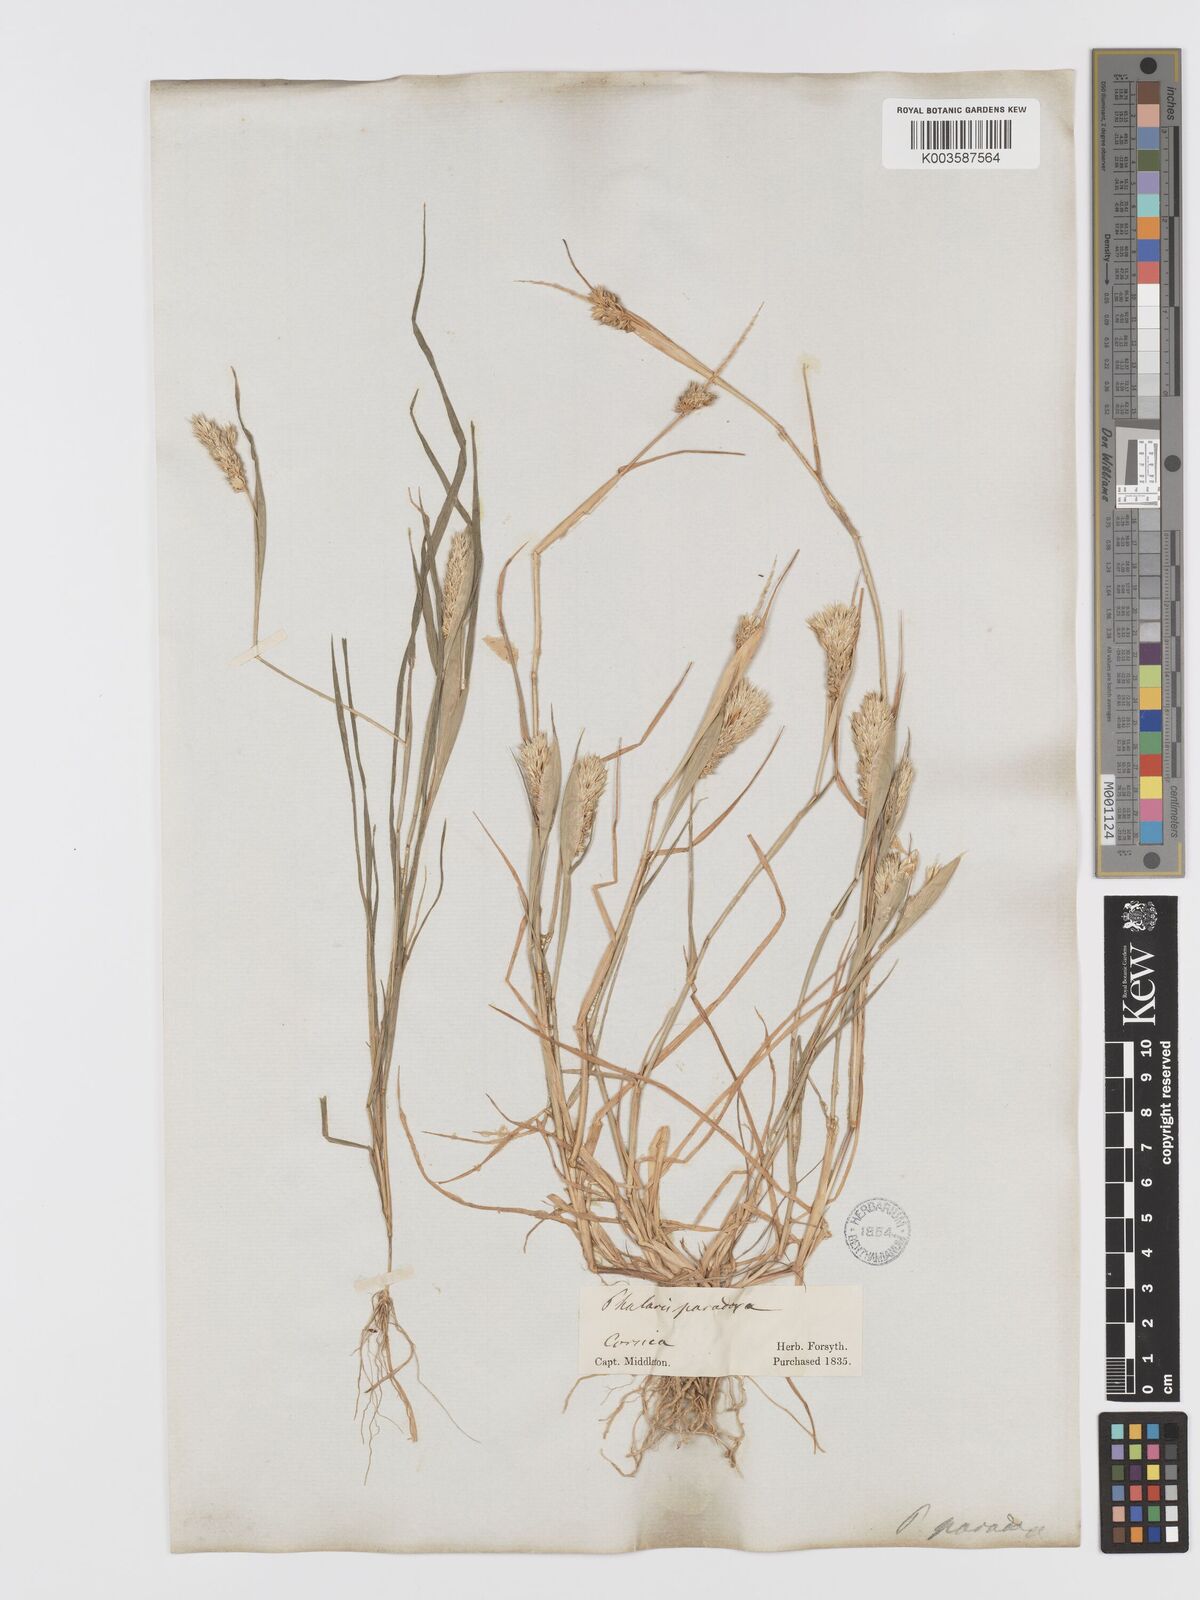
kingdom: Plantae
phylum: Tracheophyta
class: Liliopsida
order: Poales
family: Poaceae
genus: Phalaris
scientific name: Phalaris paradoxa
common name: Awned canary-grass
